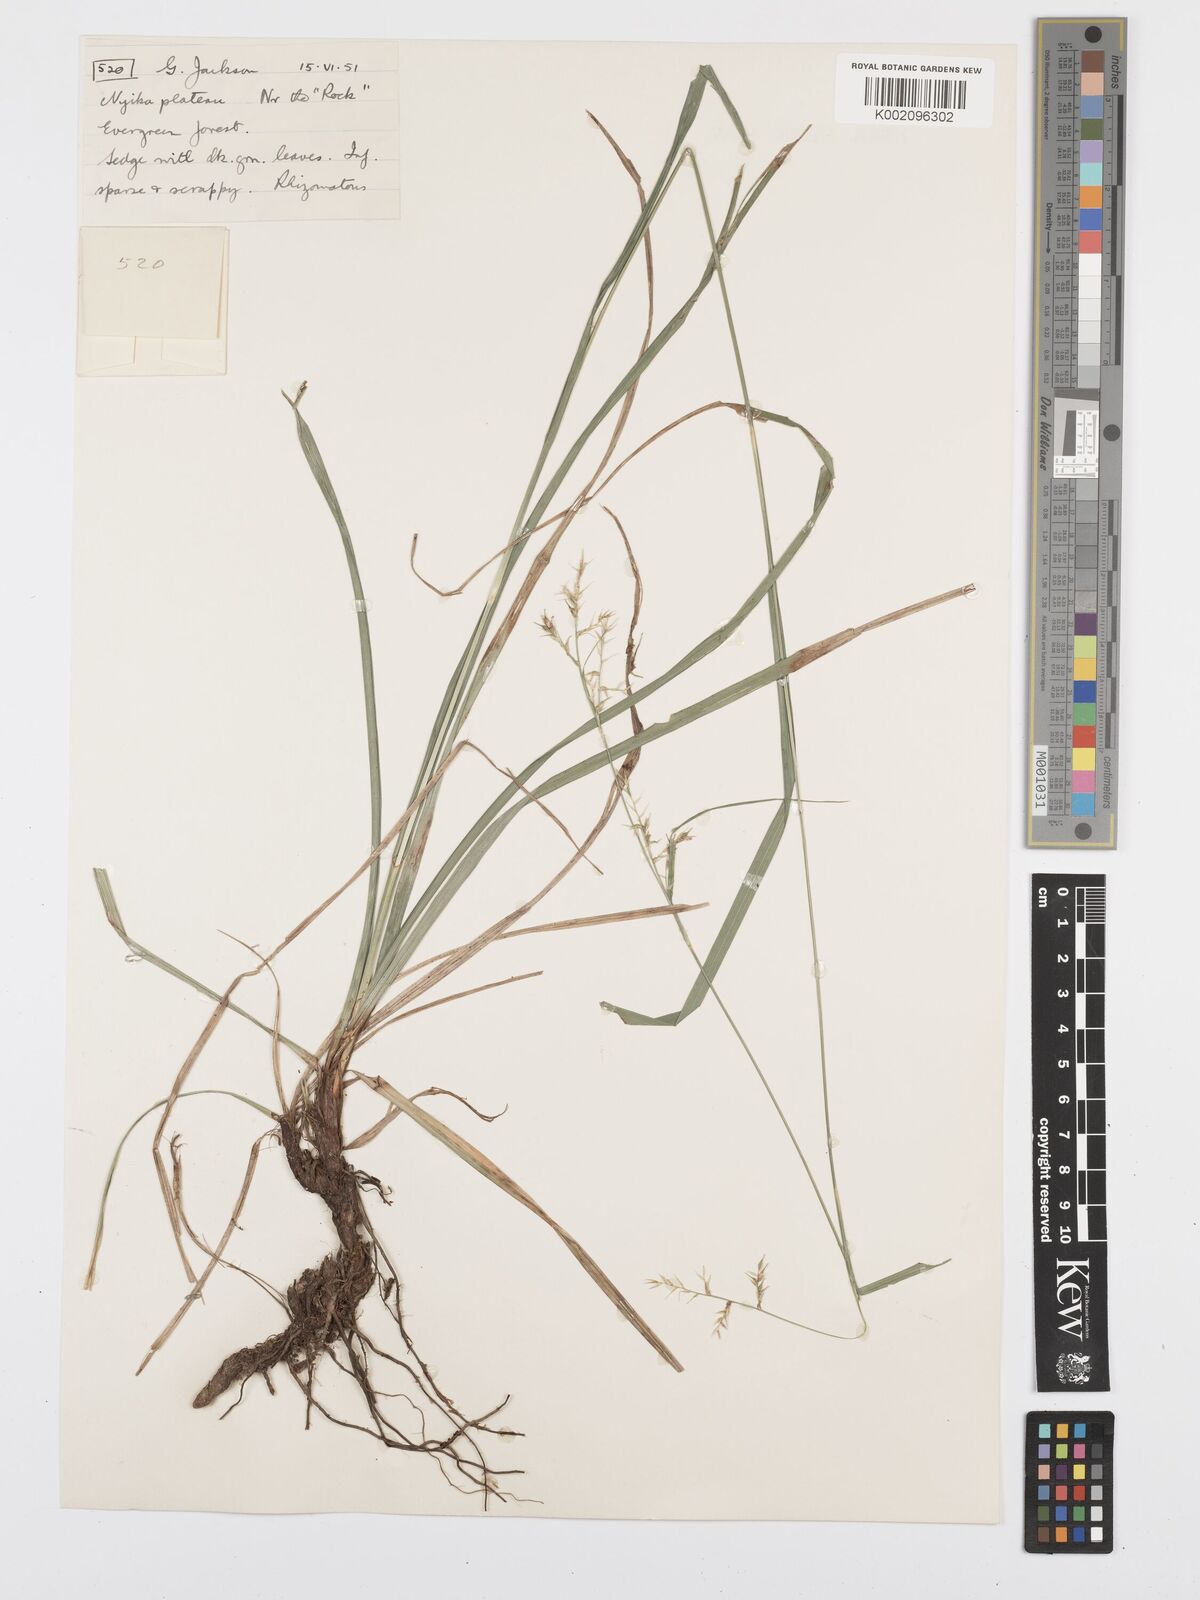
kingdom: Plantae
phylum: Tracheophyta
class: Liliopsida
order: Poales
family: Cyperaceae
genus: Carex
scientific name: Carex chlorosaccus
